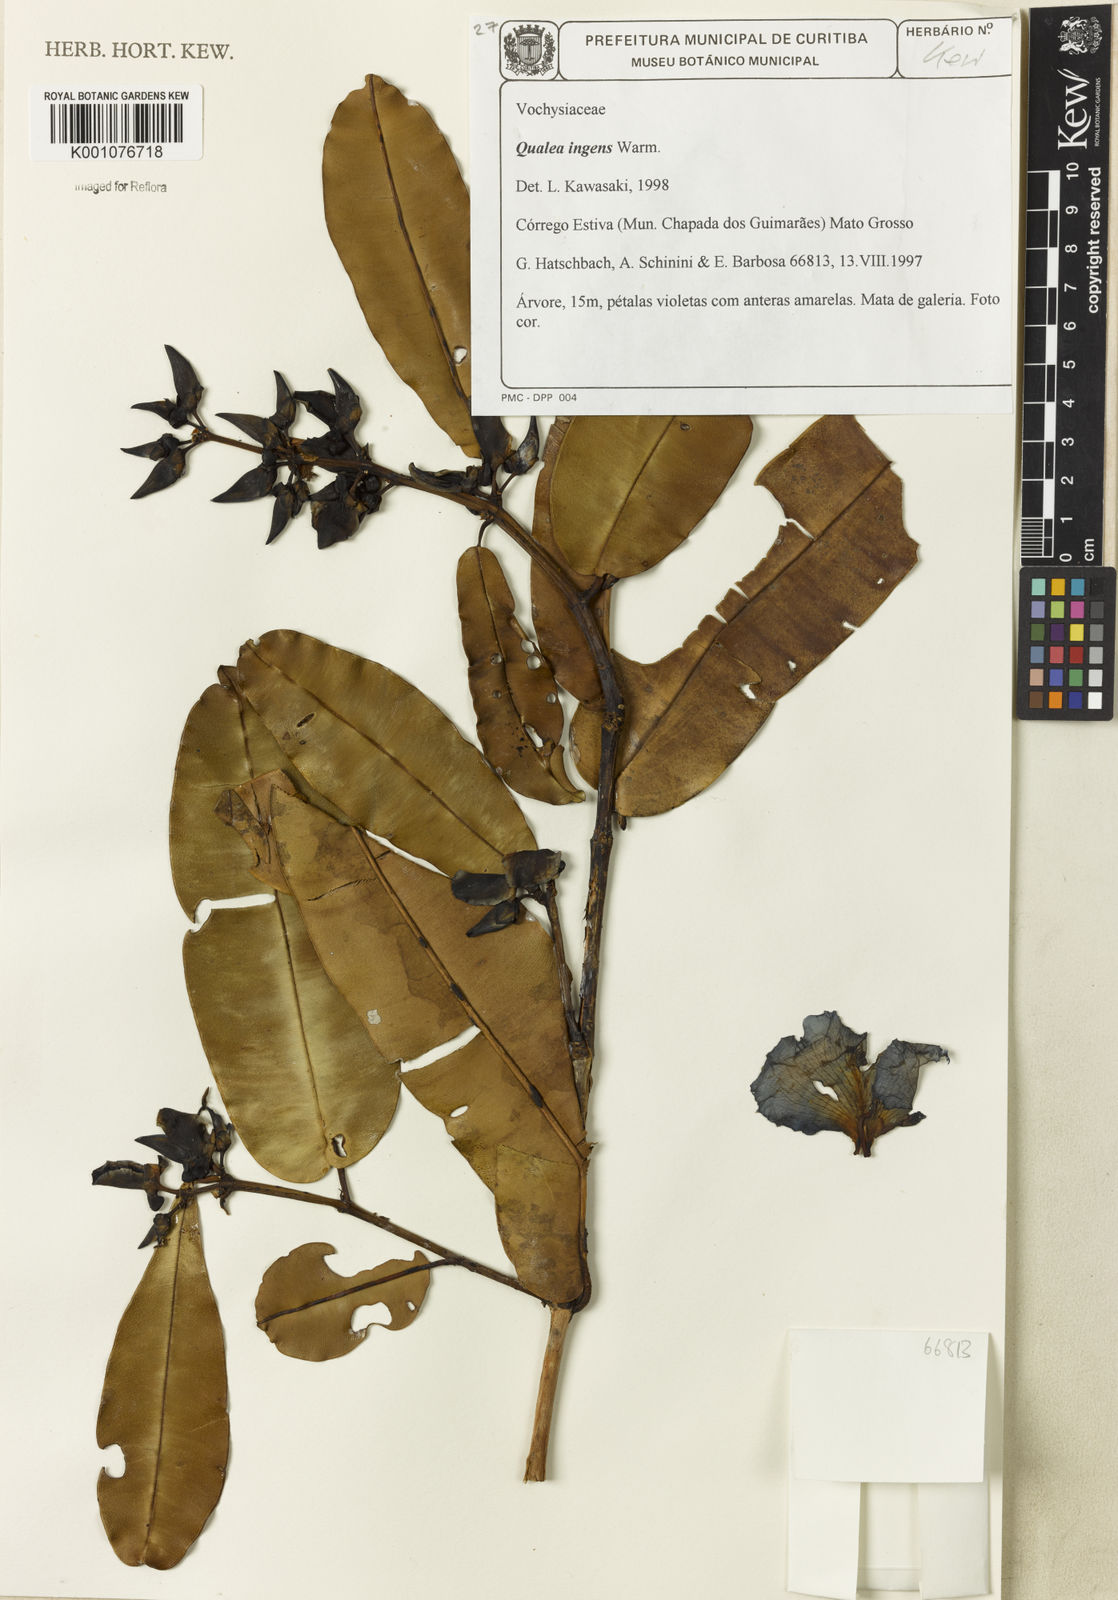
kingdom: Plantae
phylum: Tracheophyta
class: Magnoliopsida
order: Myrtales
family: Vochysiaceae
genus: Qualea
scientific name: Qualea ingens
